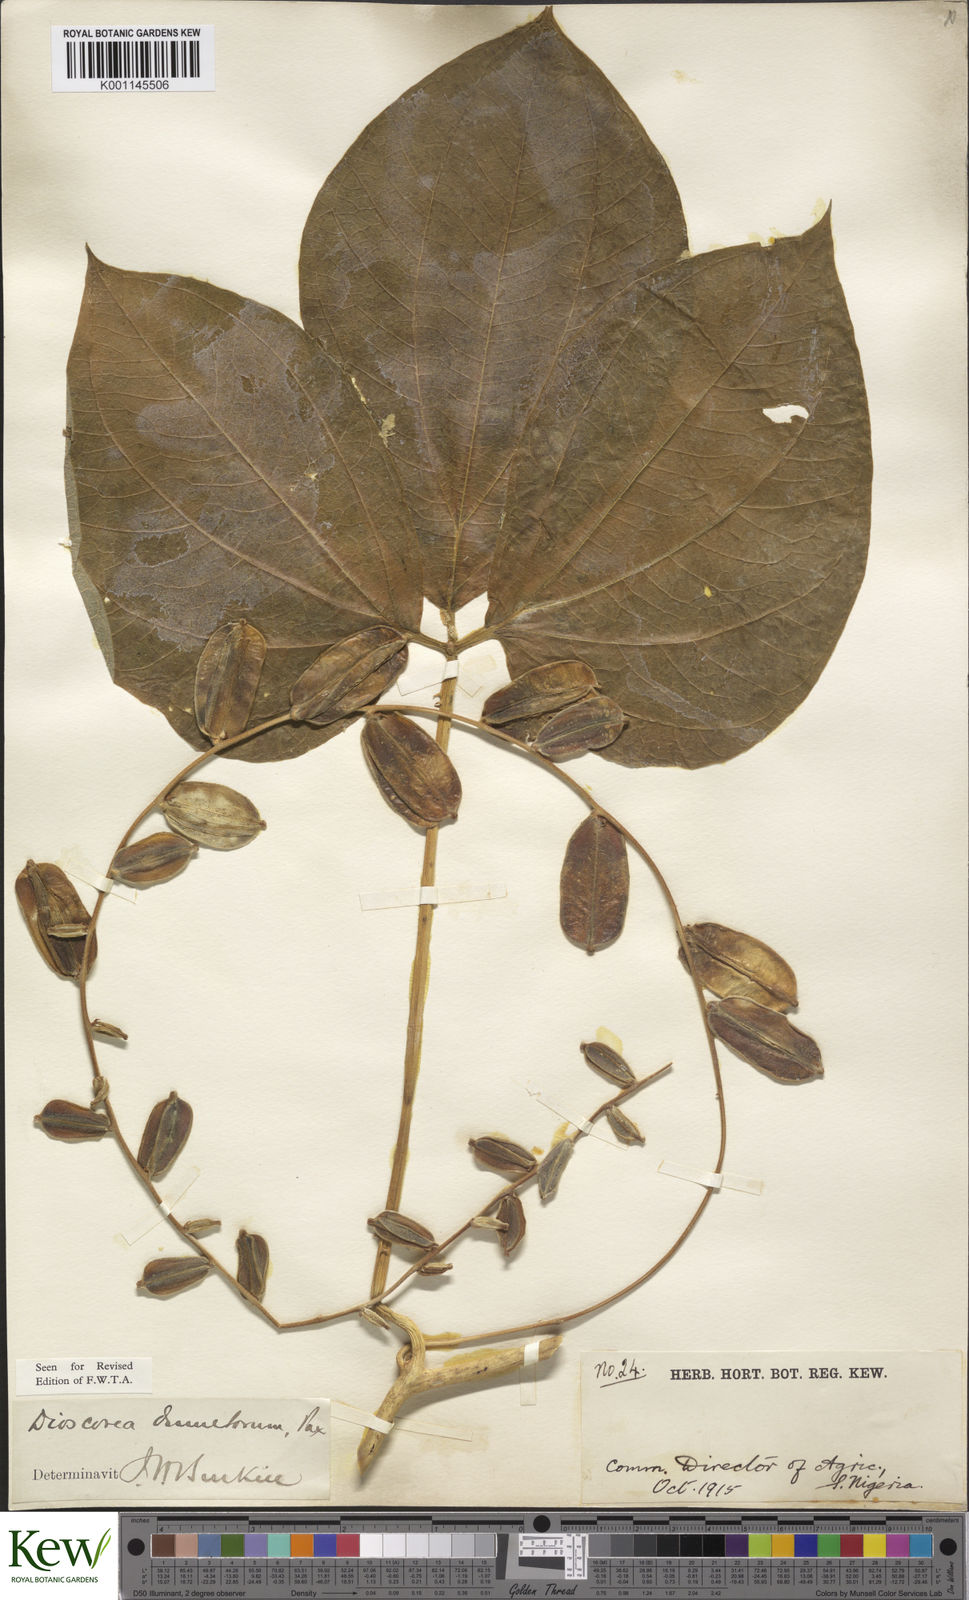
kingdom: Plantae
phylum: Tracheophyta
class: Liliopsida
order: Dioscoreales
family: Dioscoreaceae
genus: Dioscorea
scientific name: Dioscorea dumetorum
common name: African bitter yam
